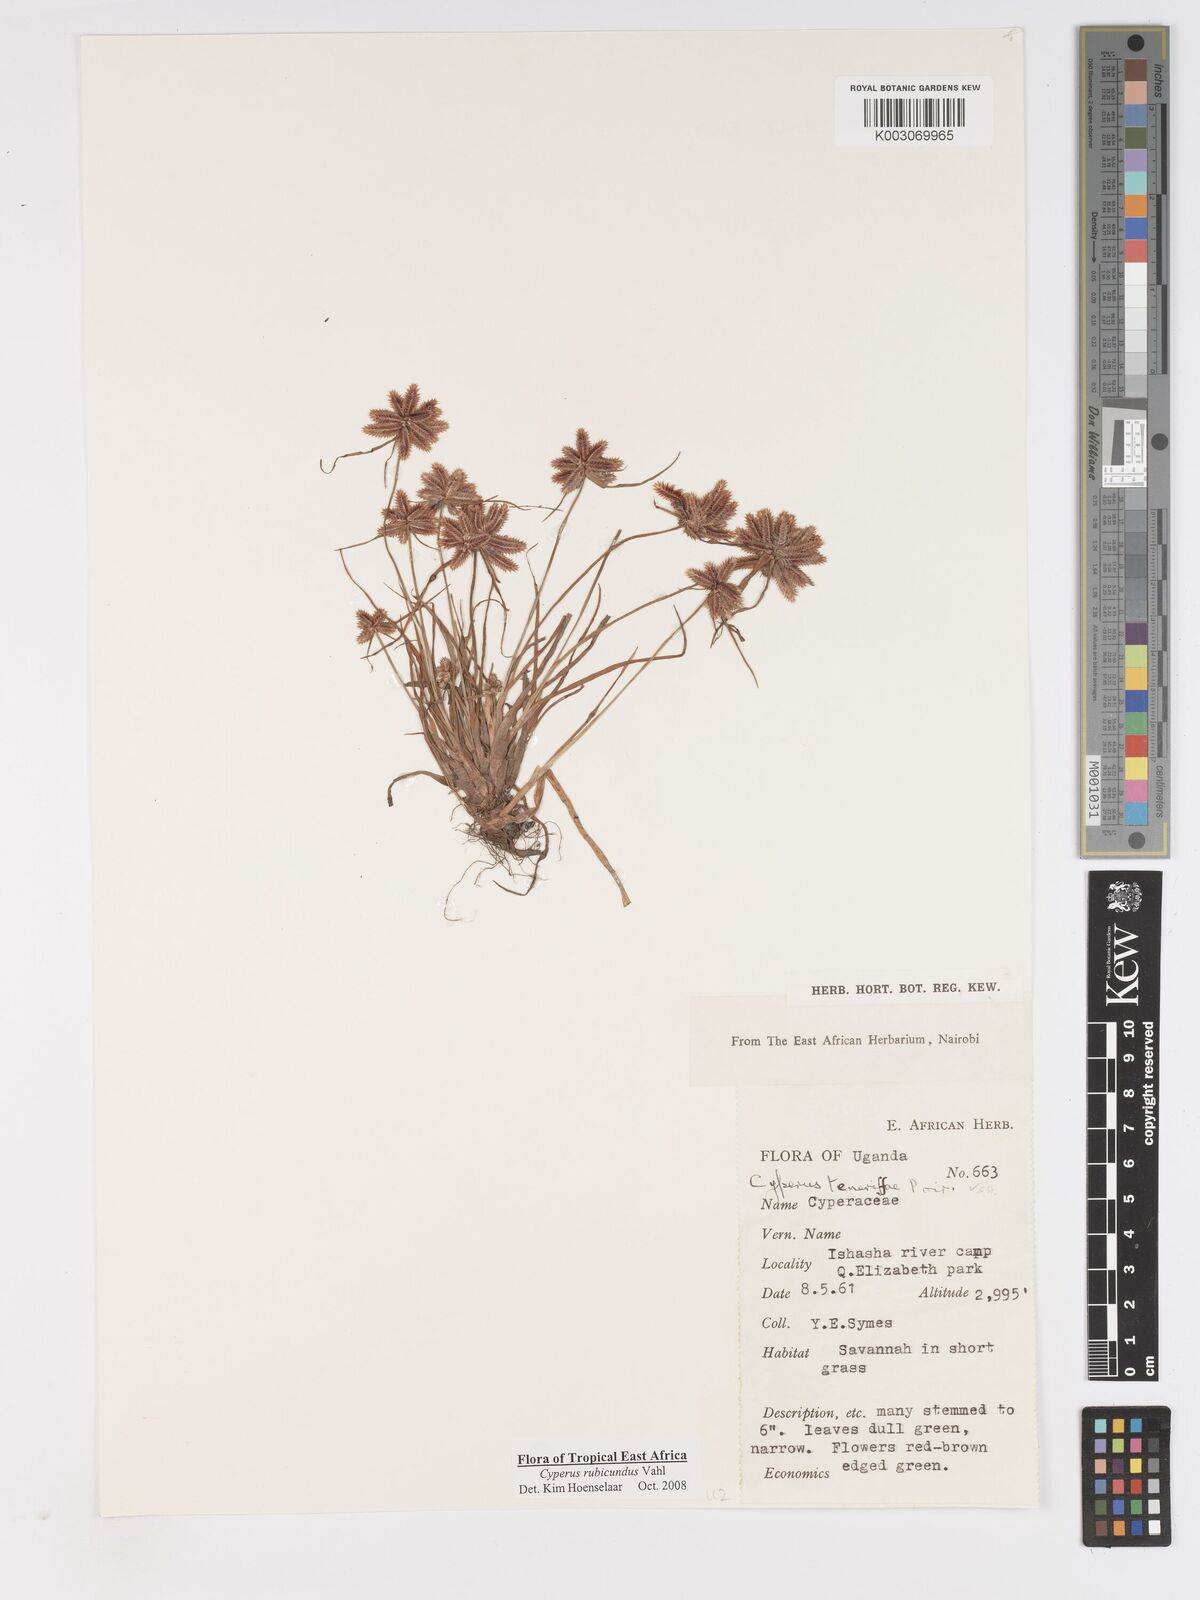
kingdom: Plantae
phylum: Tracheophyta
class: Liliopsida
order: Poales
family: Cyperaceae
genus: Cyperus
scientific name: Cyperus rubicundus
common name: Coco-grass
